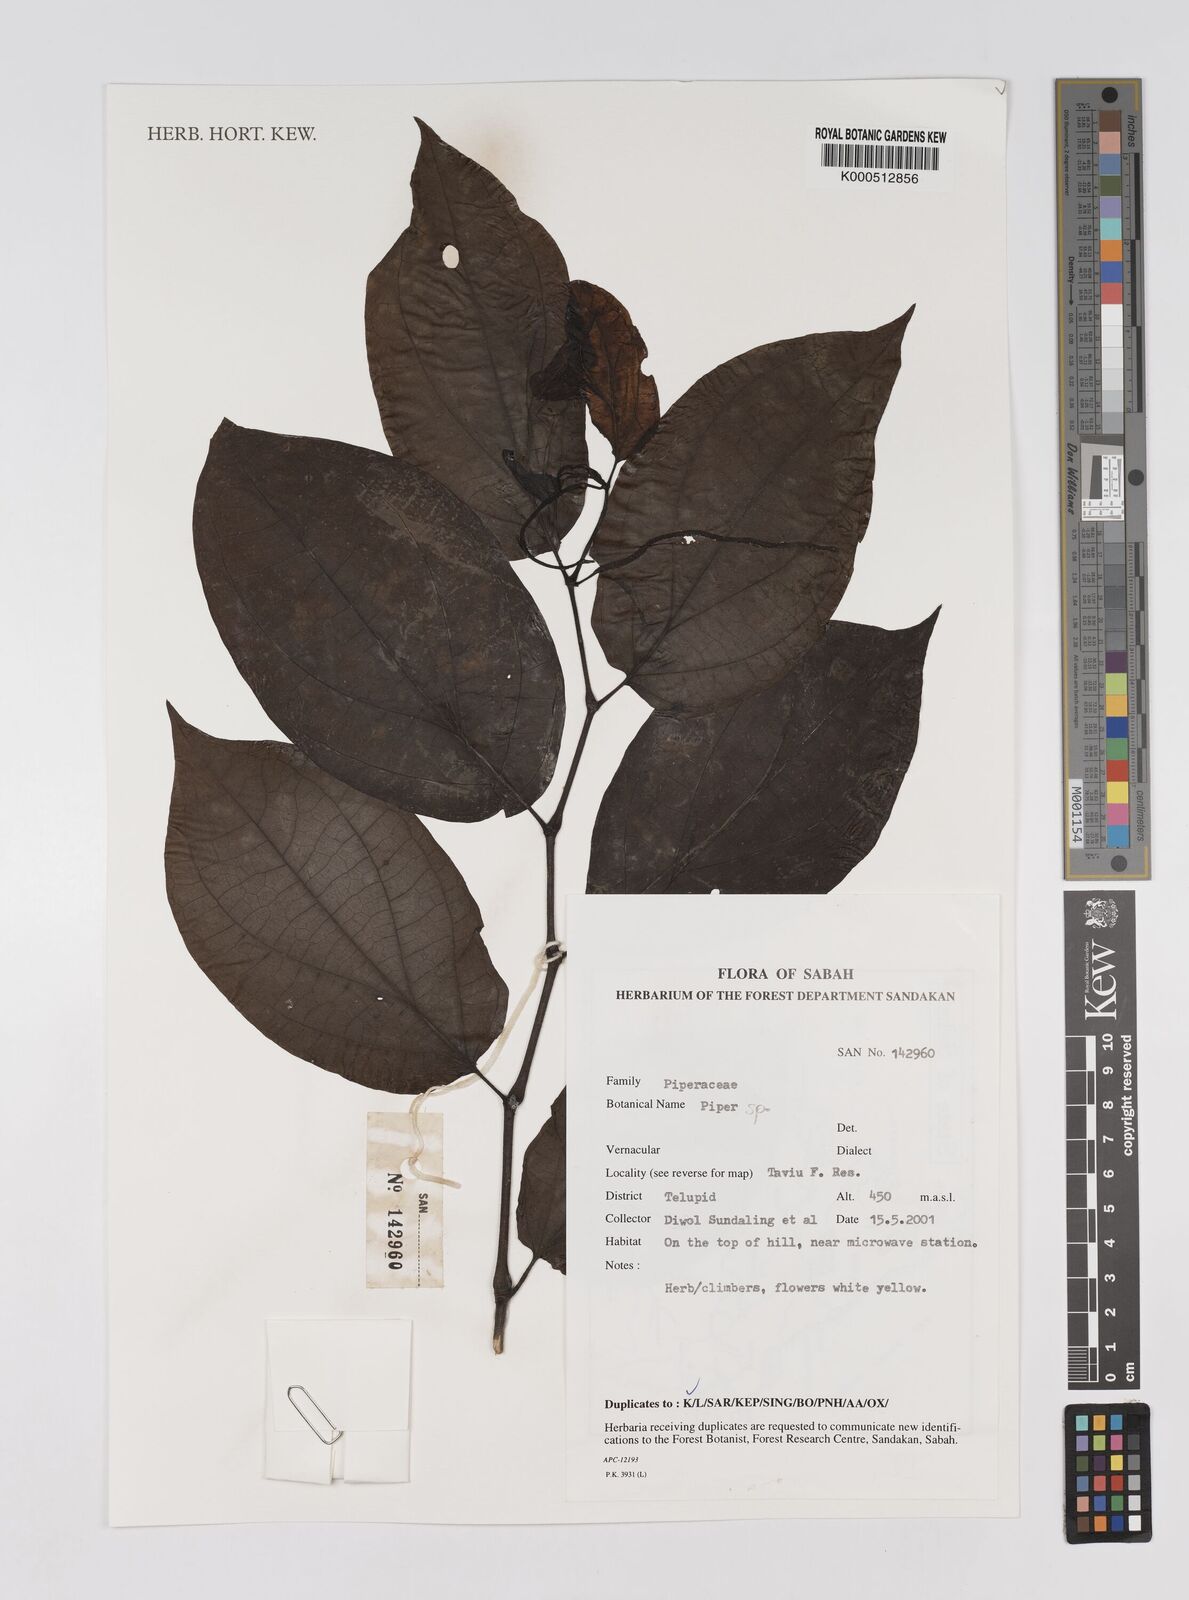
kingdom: Plantae
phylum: Tracheophyta
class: Magnoliopsida
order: Piperales
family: Piperaceae
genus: Piper
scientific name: Piper
